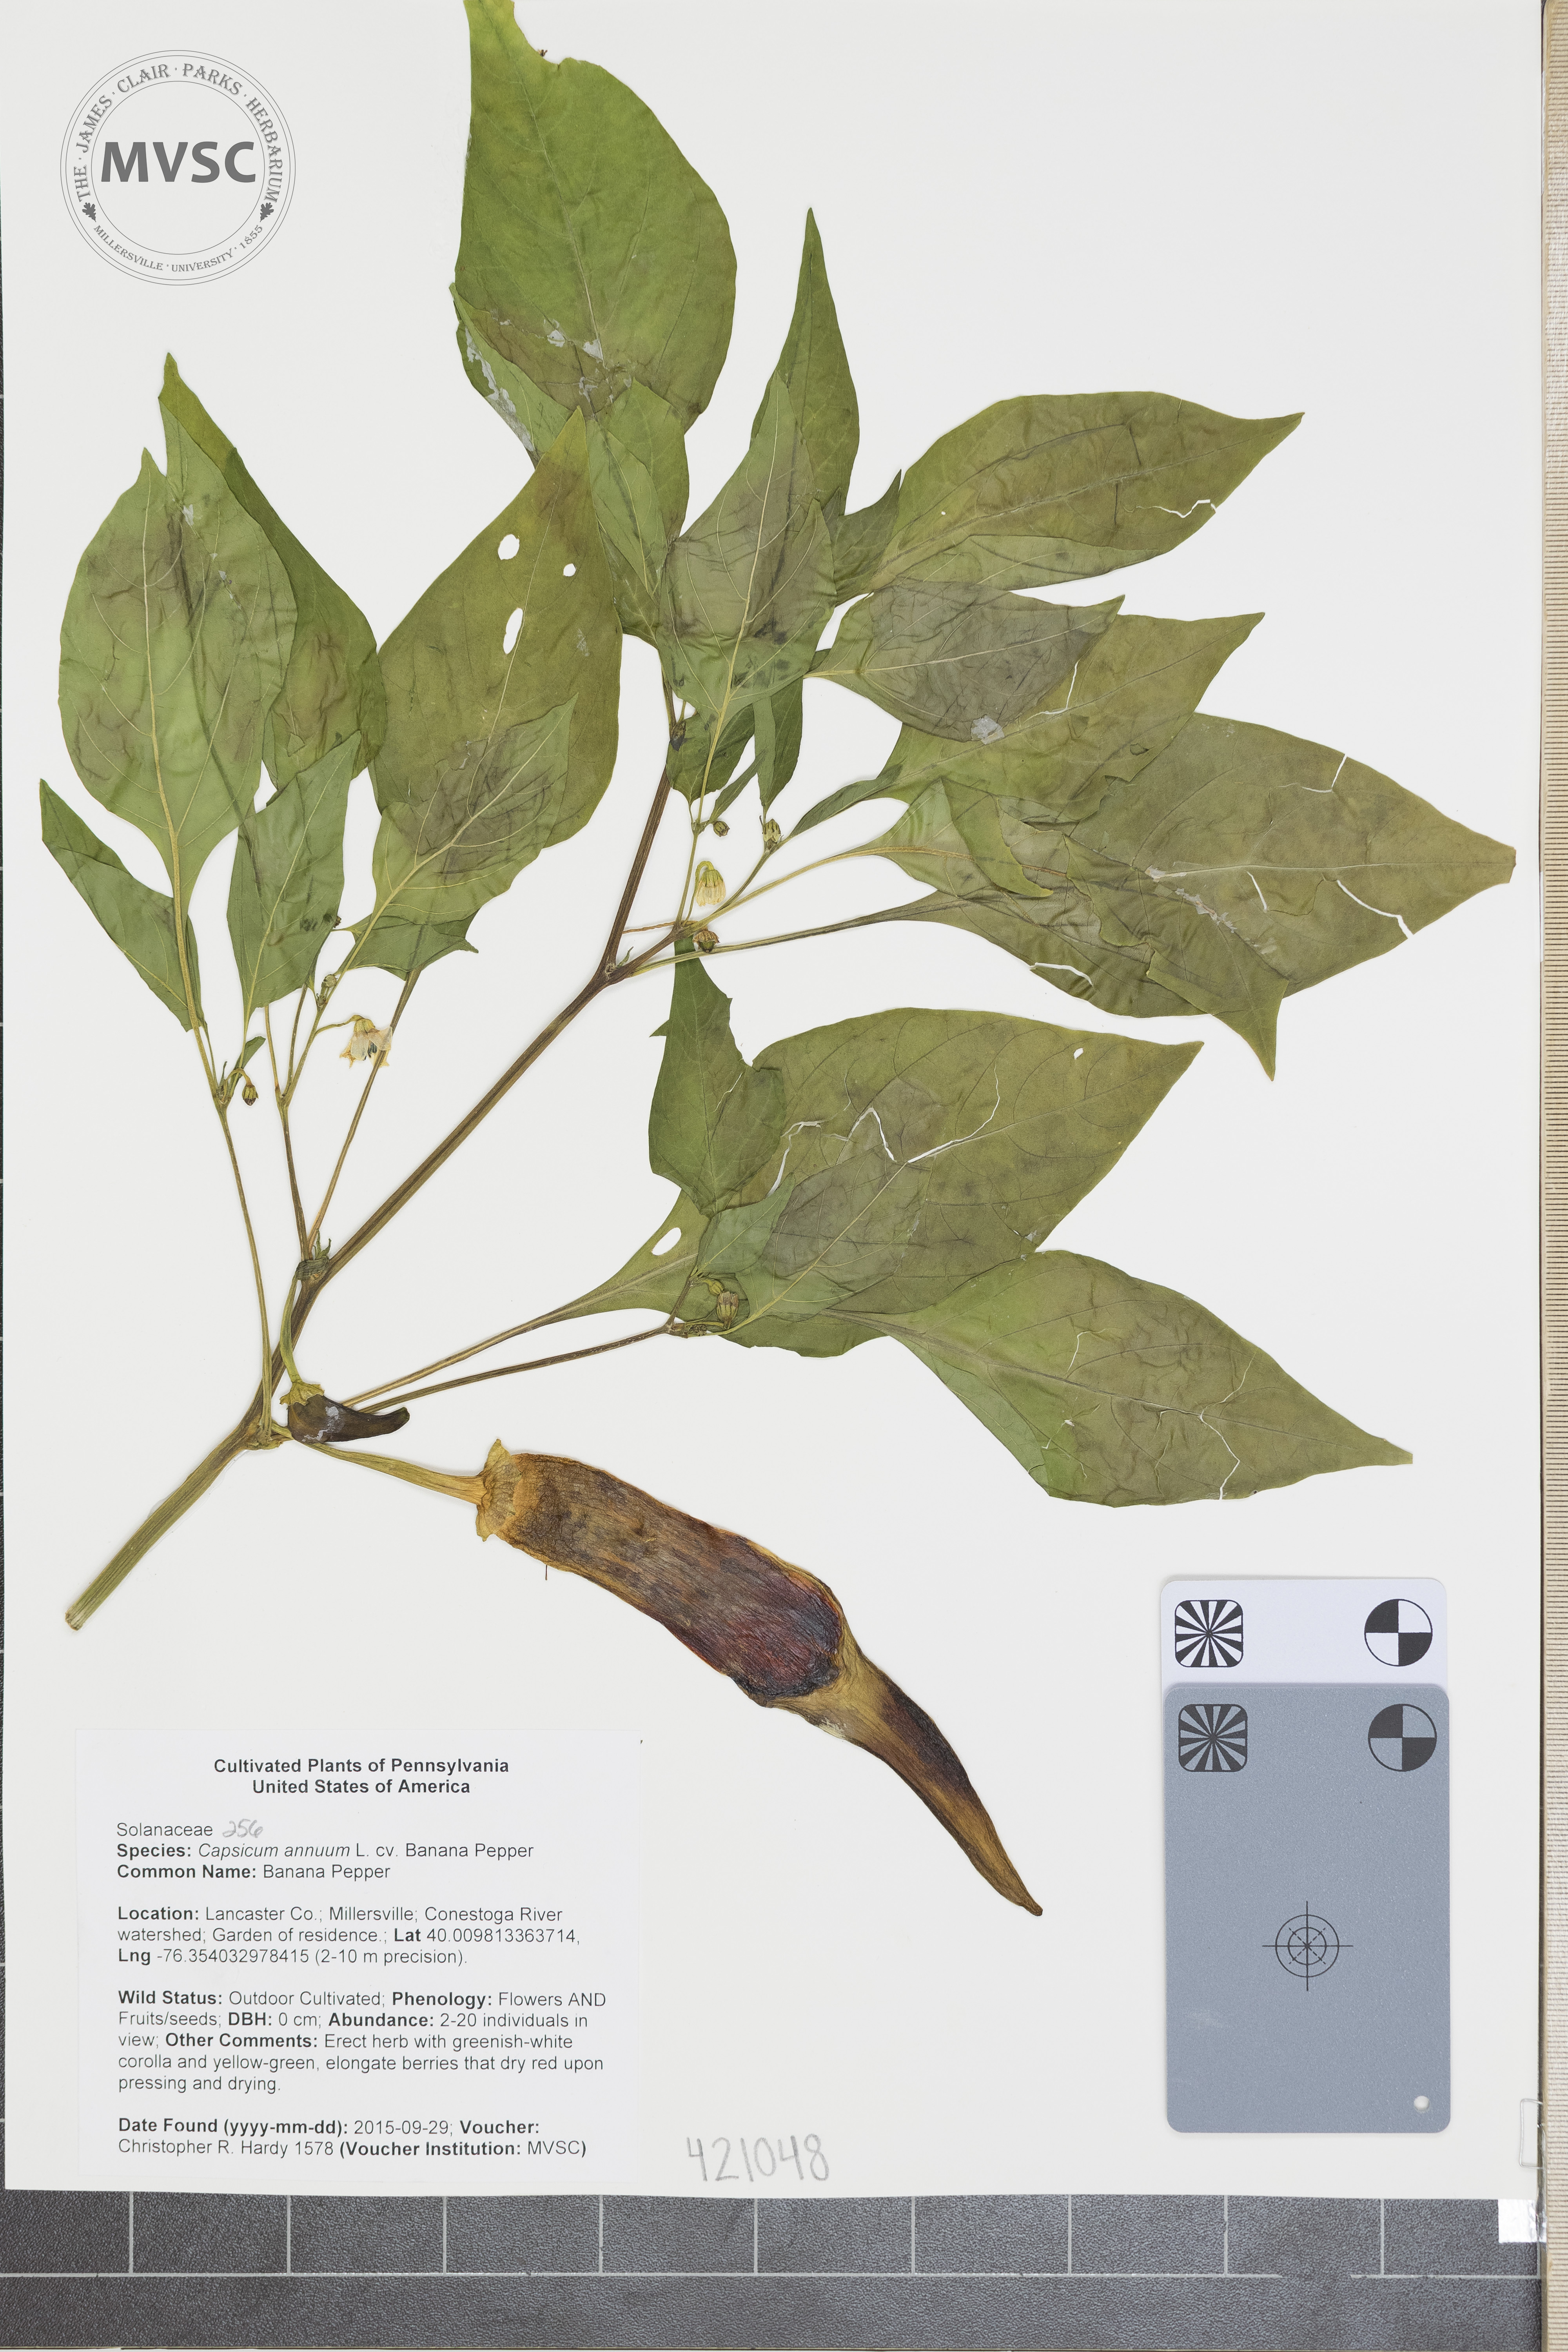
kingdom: Plantae
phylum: Tracheophyta
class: Magnoliopsida
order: Solanales
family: Solanaceae
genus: Capsicum
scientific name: Capsicum annuum
